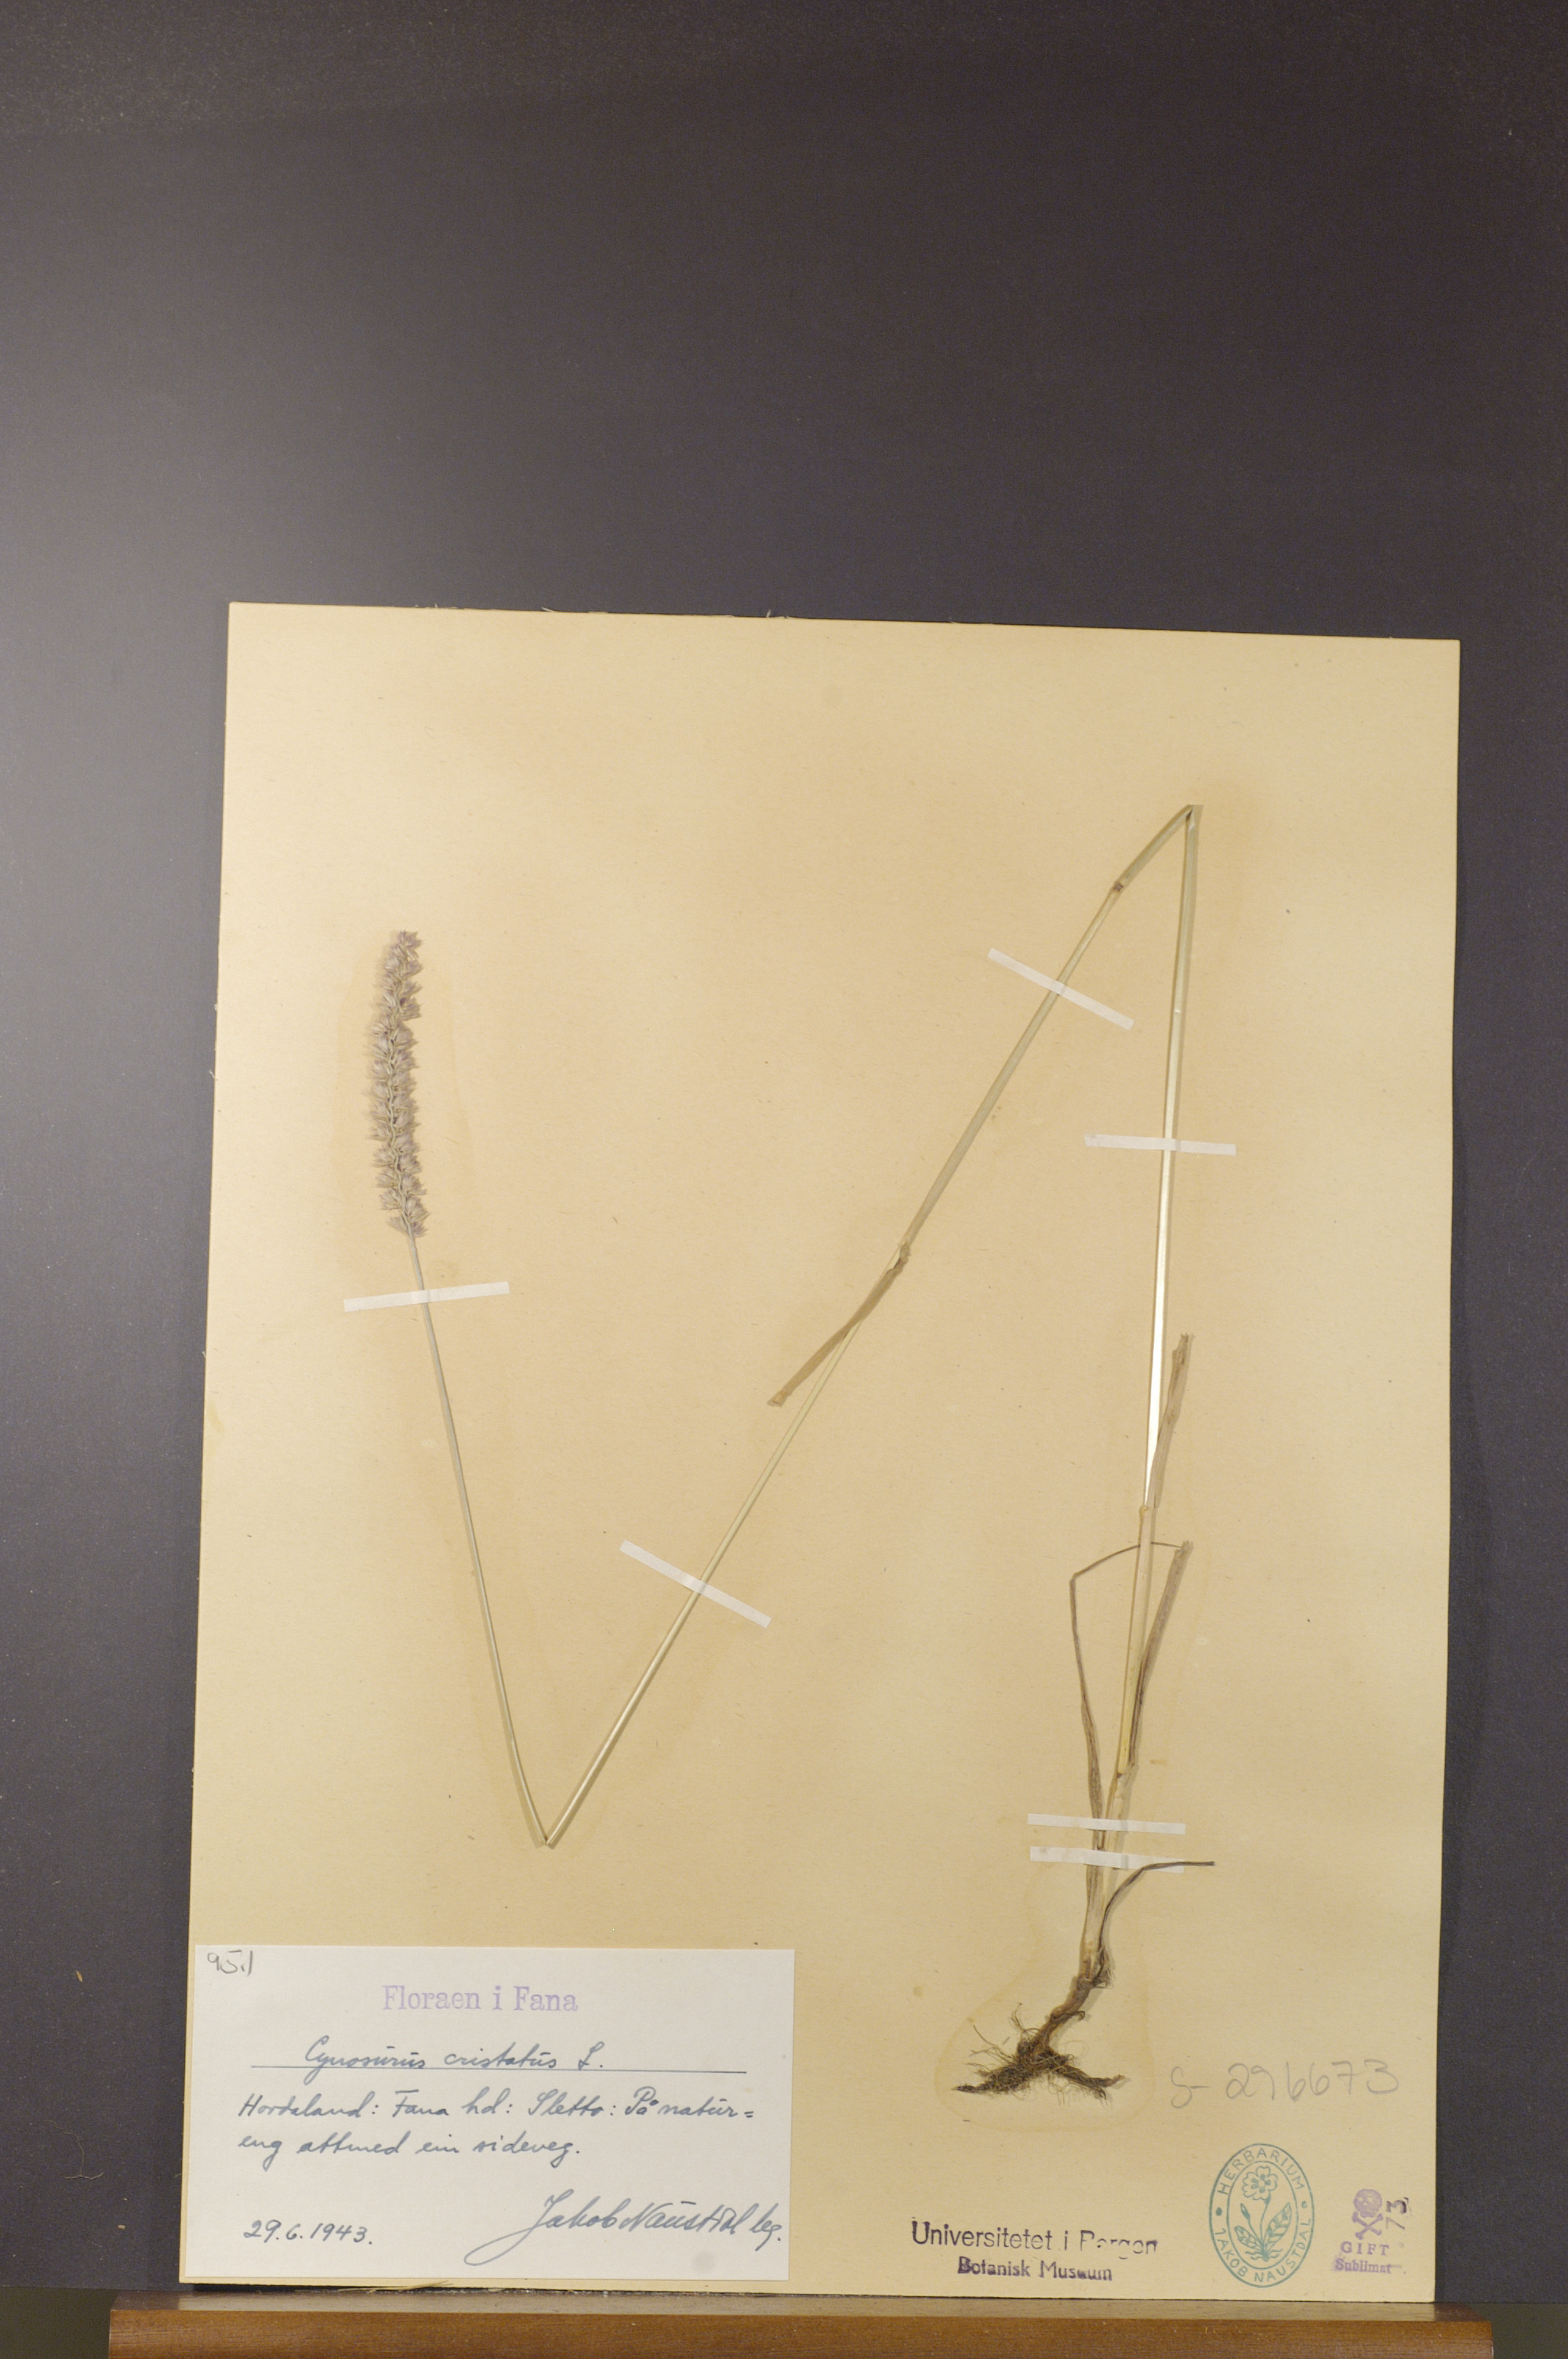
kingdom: Plantae
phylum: Tracheophyta
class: Liliopsida
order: Poales
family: Poaceae
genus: Cynosurus
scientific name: Cynosurus cristatus
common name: Crested dog's-tail
